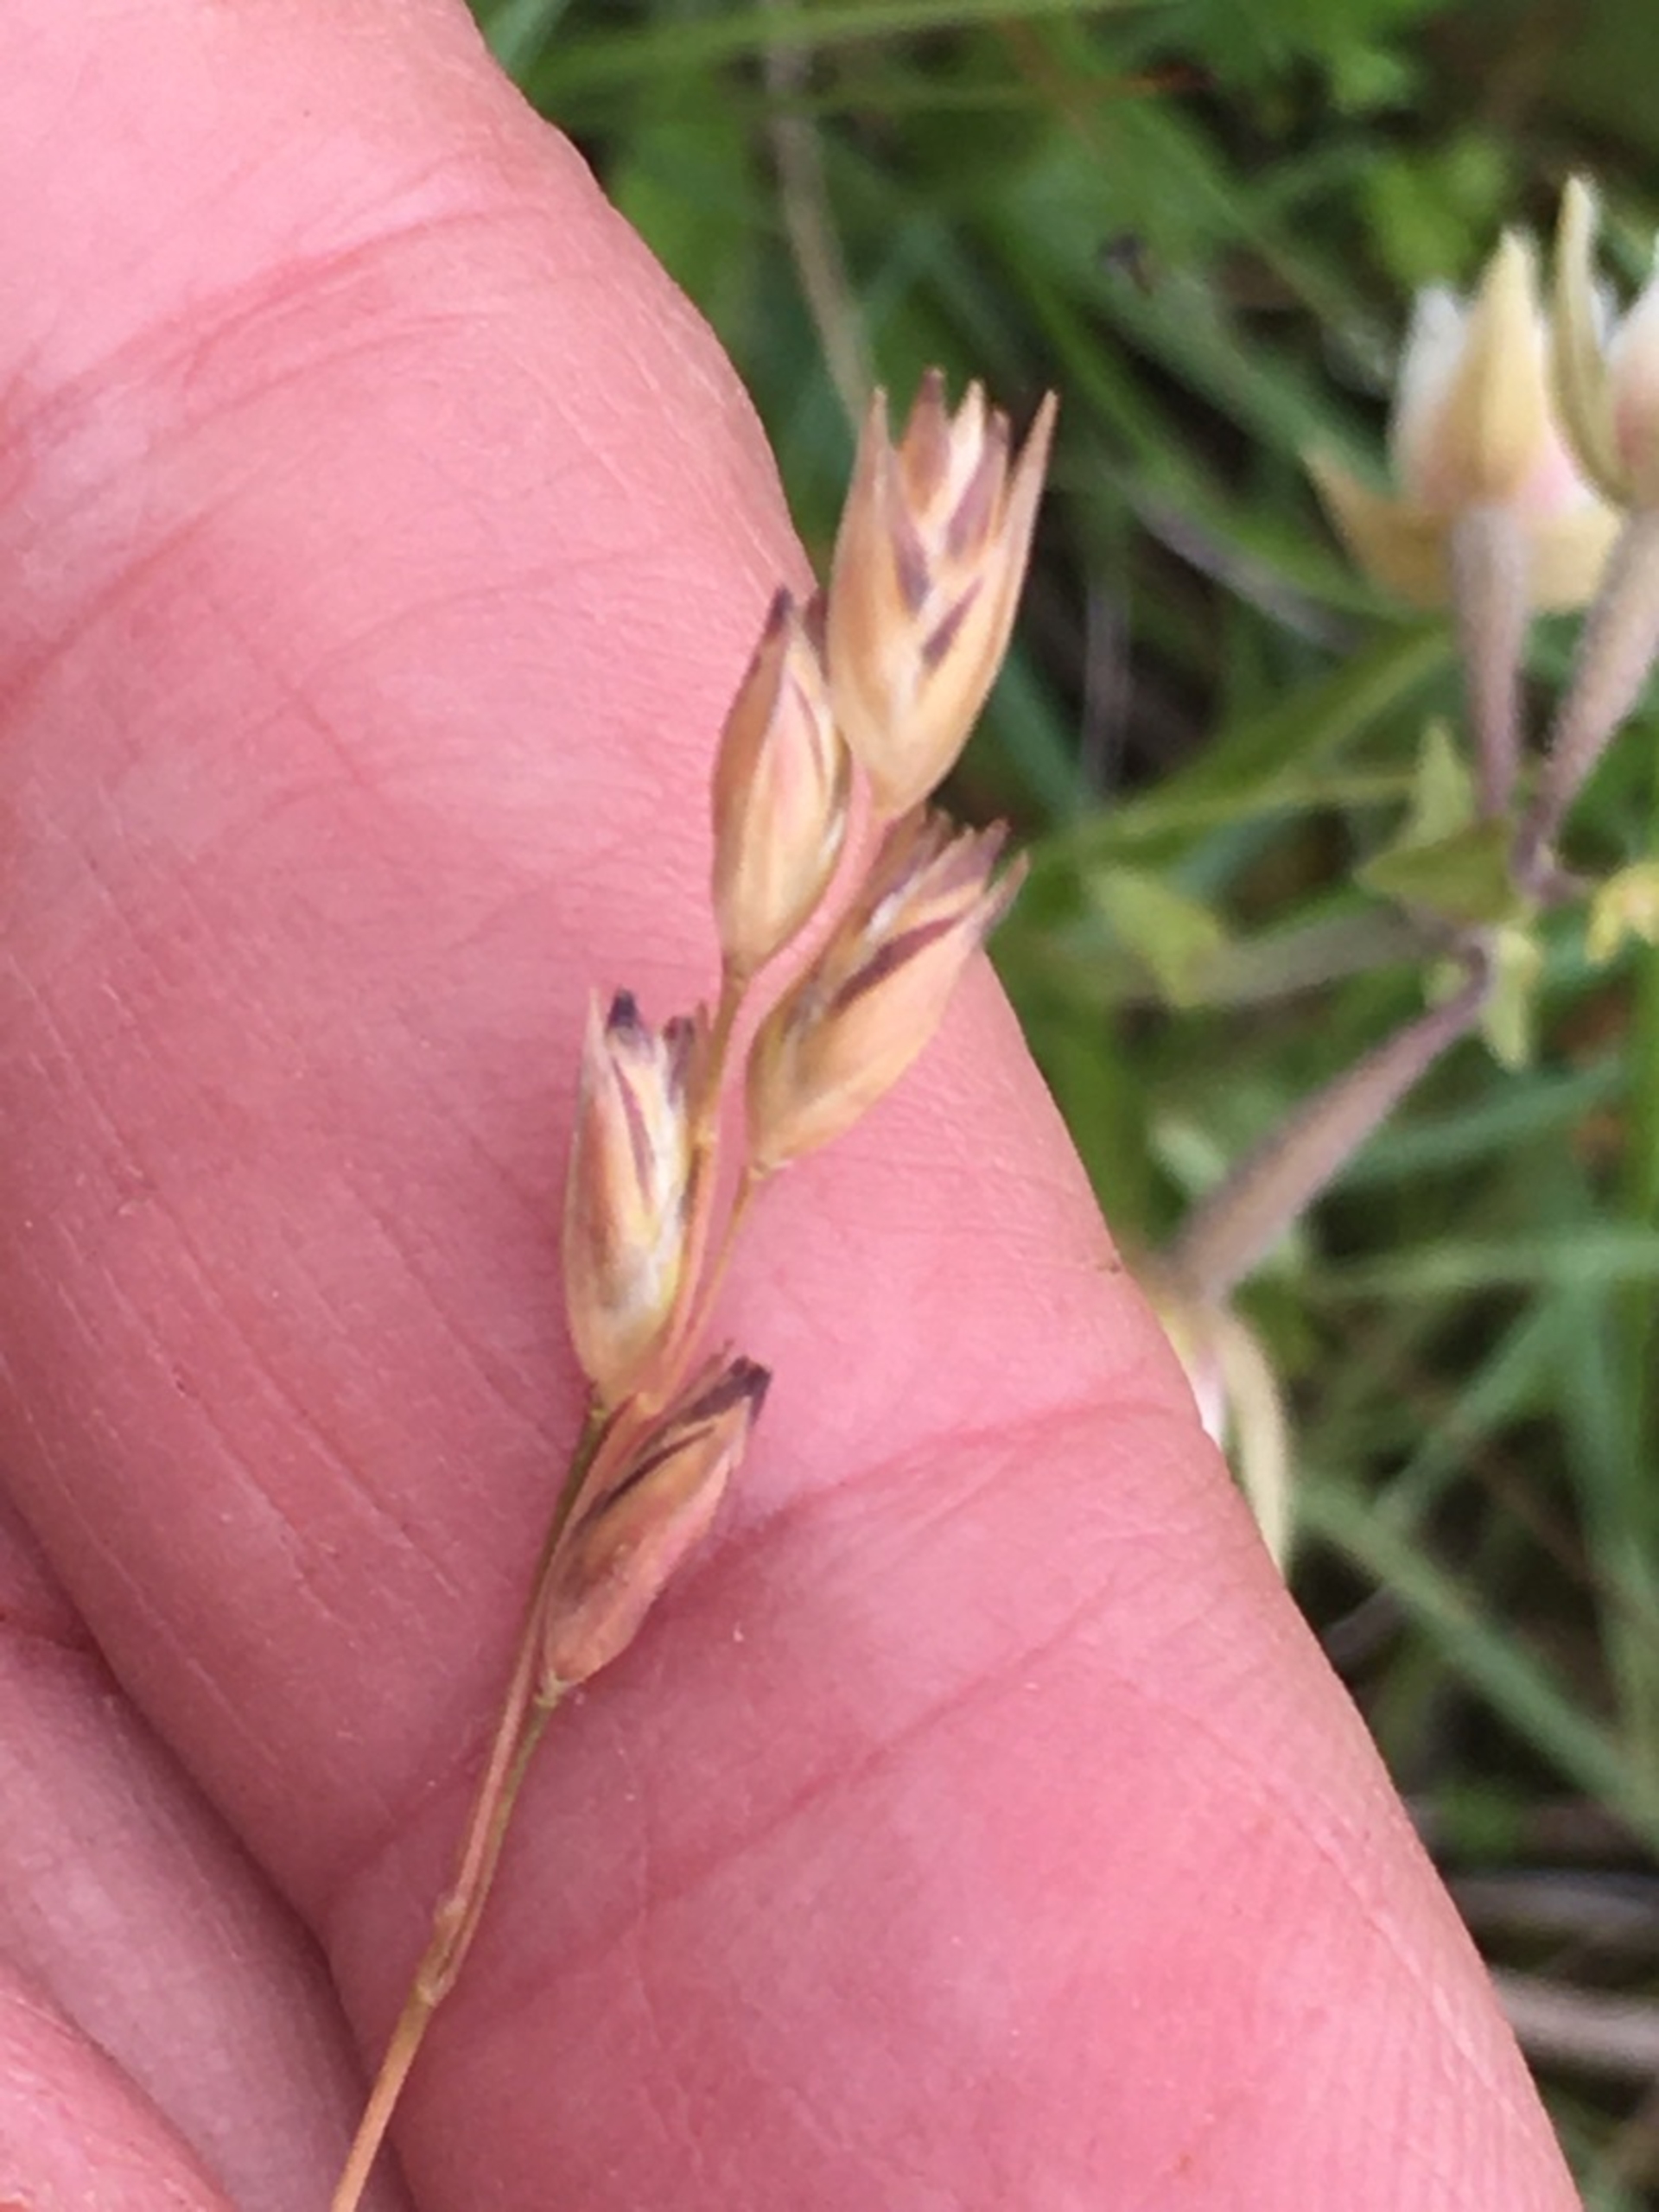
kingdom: Plantae
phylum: Tracheophyta
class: Liliopsida
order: Poales
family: Poaceae
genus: Danthonia
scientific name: Danthonia decumbens
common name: Tandbælg
